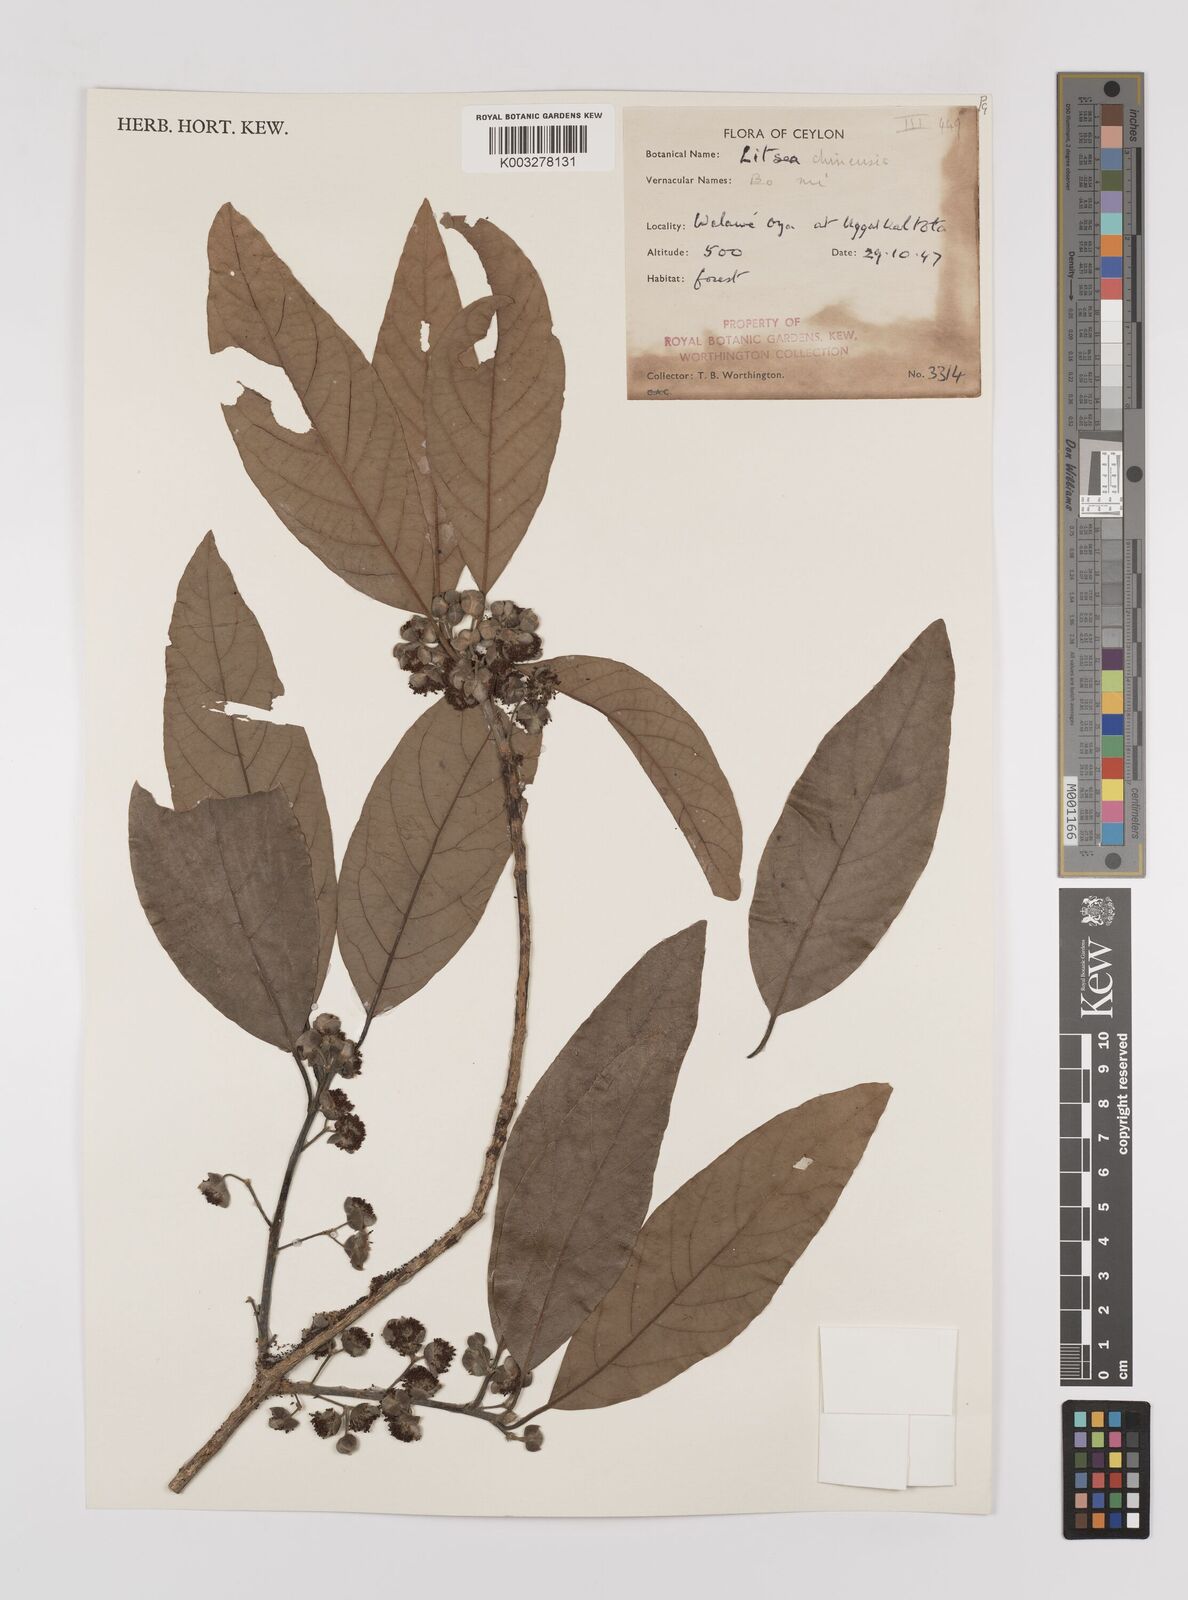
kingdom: Plantae
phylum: Tracheophyta
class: Magnoliopsida
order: Laurales
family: Lauraceae
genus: Litsea
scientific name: Litsea
